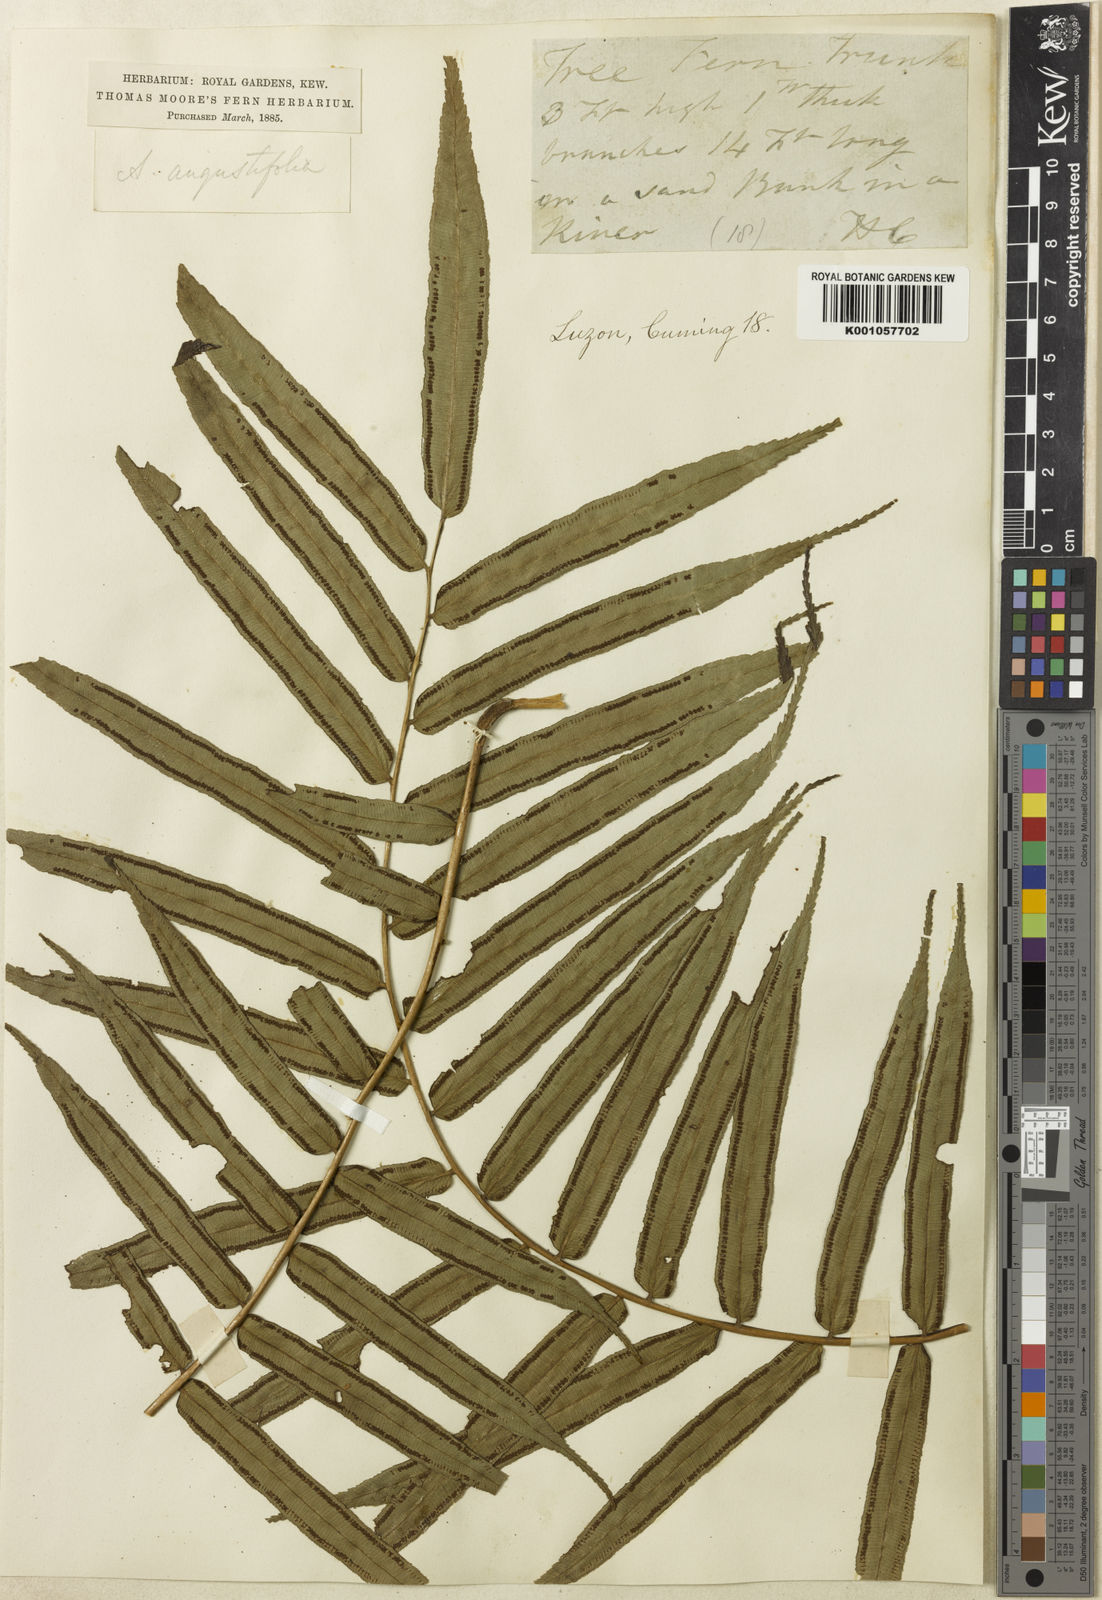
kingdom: Plantae
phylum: Tracheophyta
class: Polypodiopsida
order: Marattiales
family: Marattiaceae
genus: Angiopteris
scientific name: Angiopteris angustifolia
